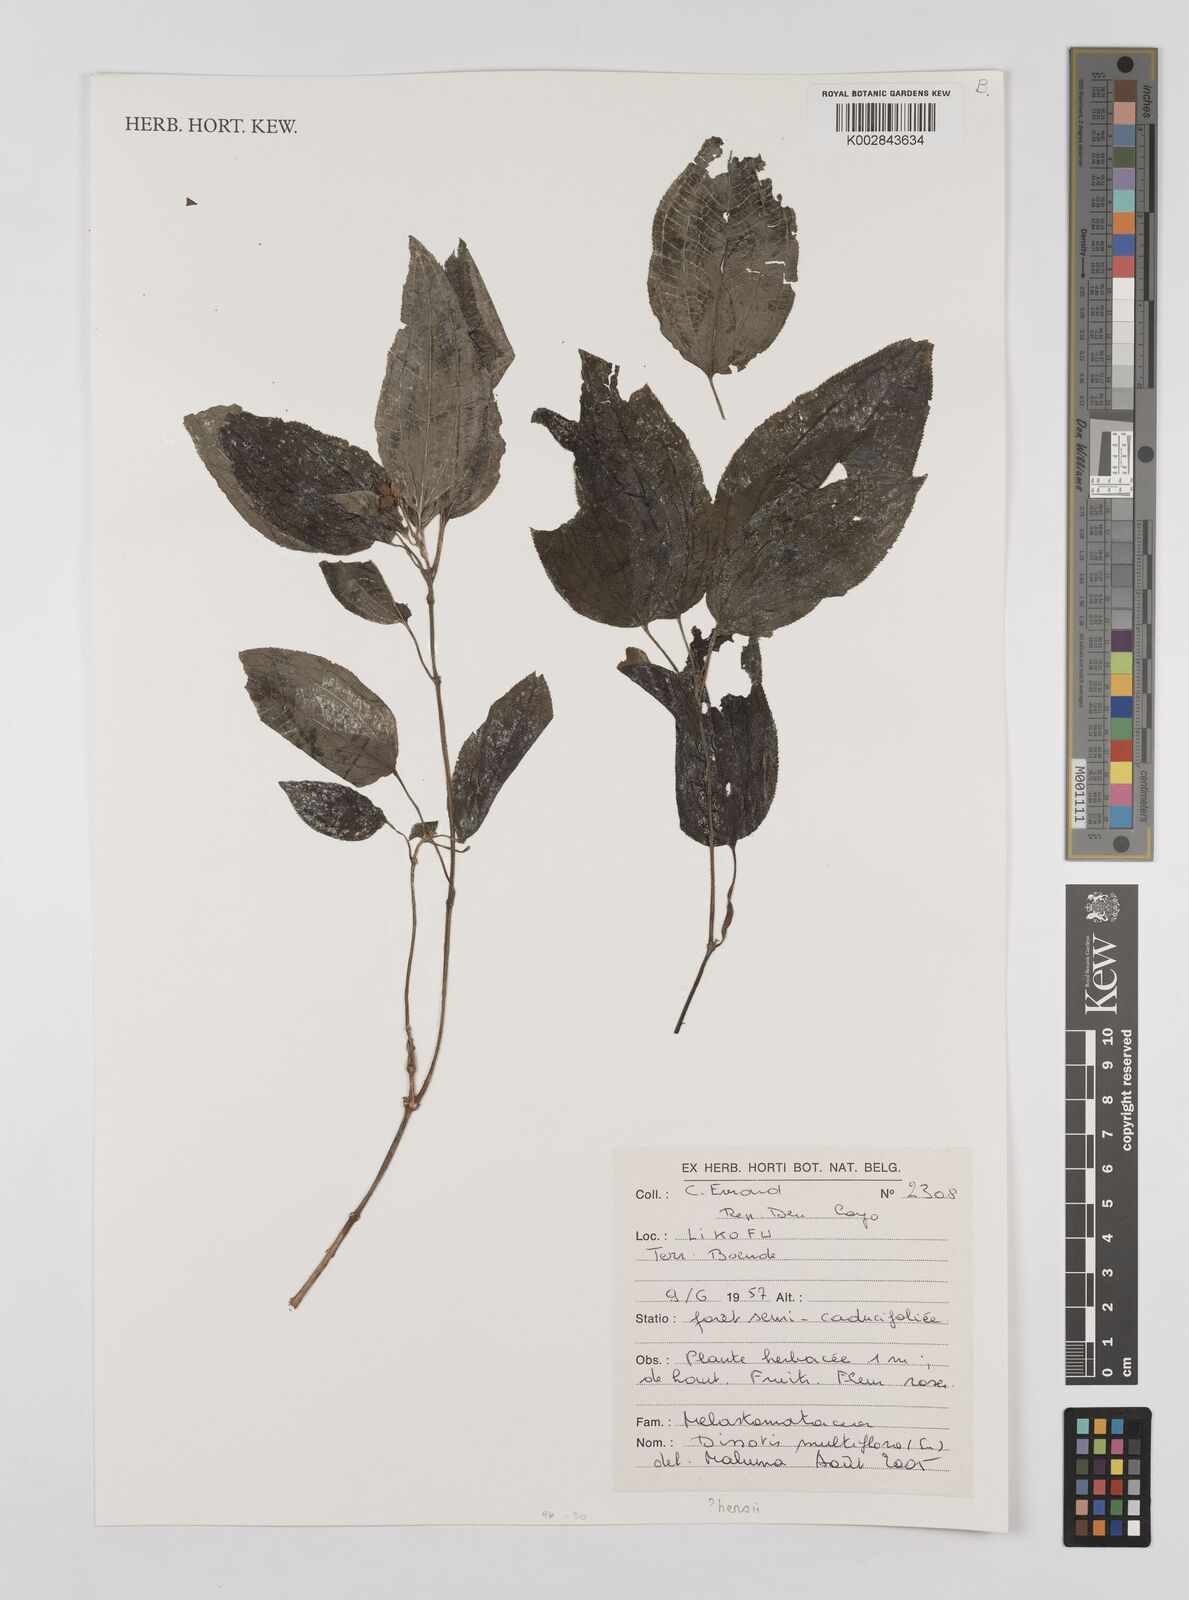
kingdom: Plantae
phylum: Tracheophyta
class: Magnoliopsida
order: Myrtales
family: Melastomataceae
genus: Dupineta
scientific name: Dupineta multiflora
